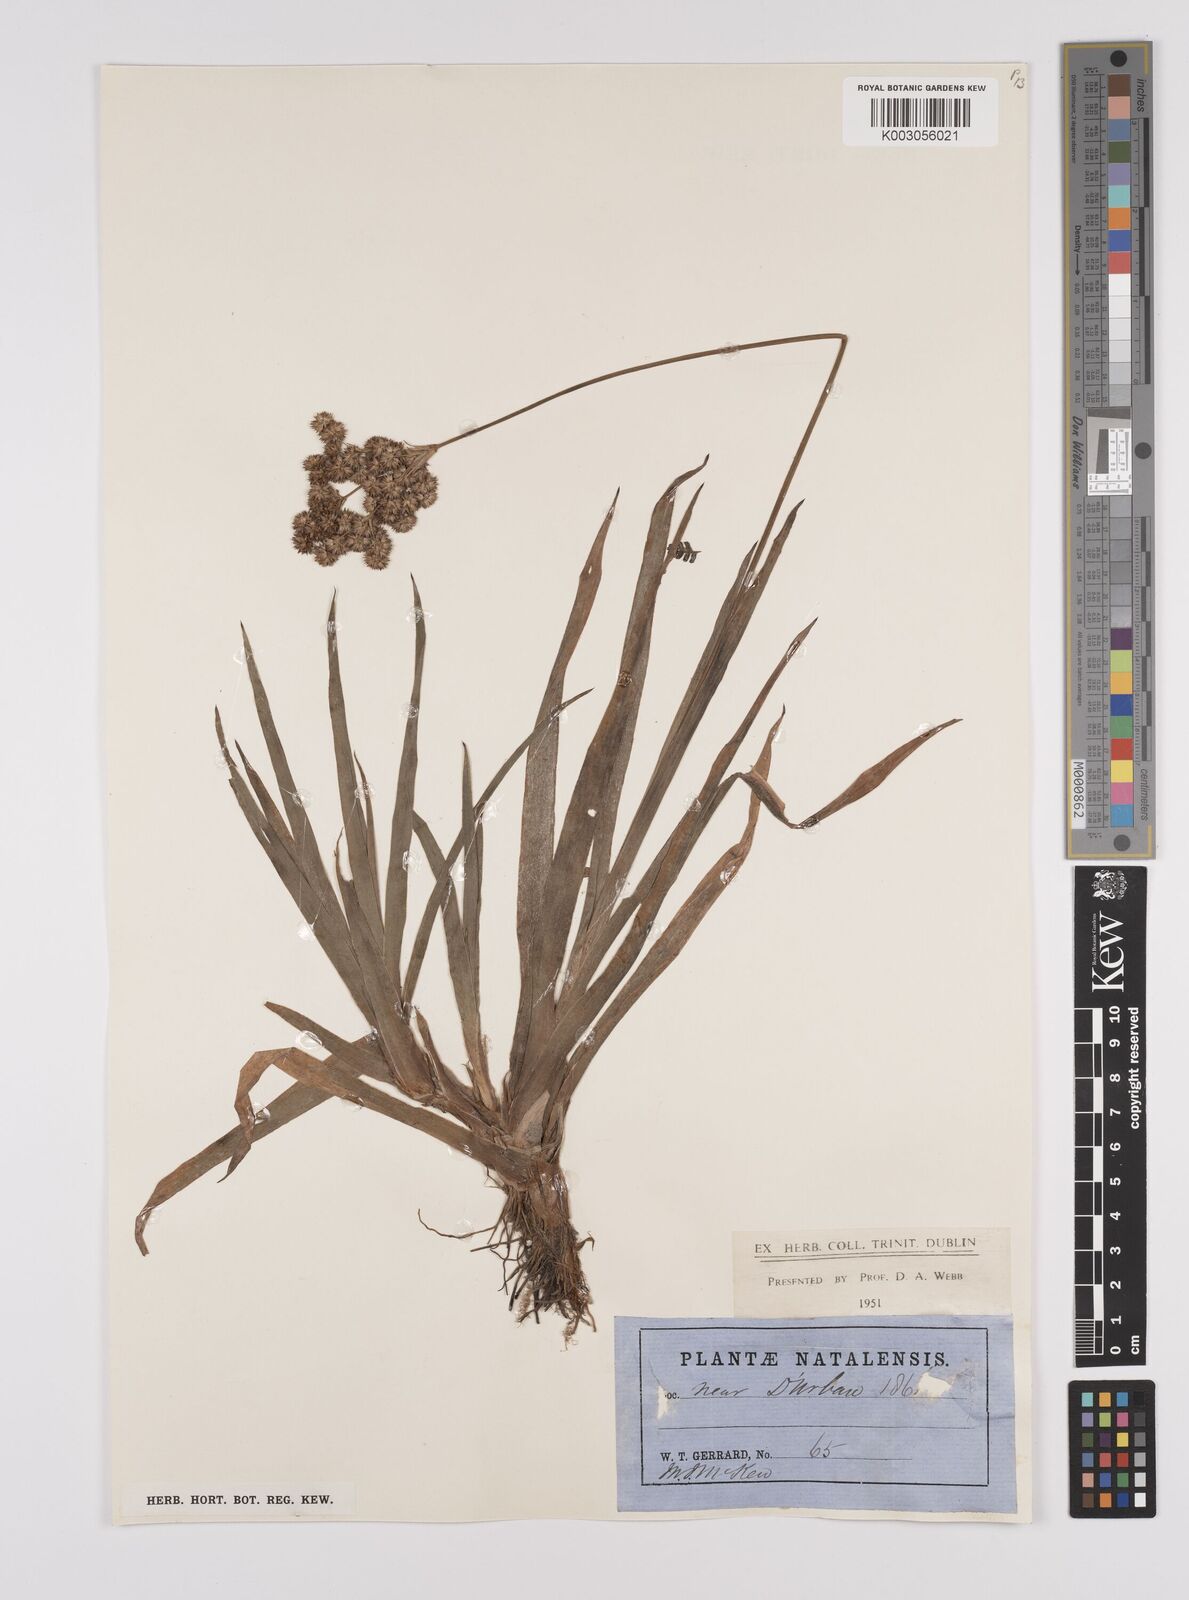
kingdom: Plantae
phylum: Tracheophyta
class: Liliopsida
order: Poales
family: Juncaceae
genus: Juncus
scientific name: Juncus lomatophyllus
